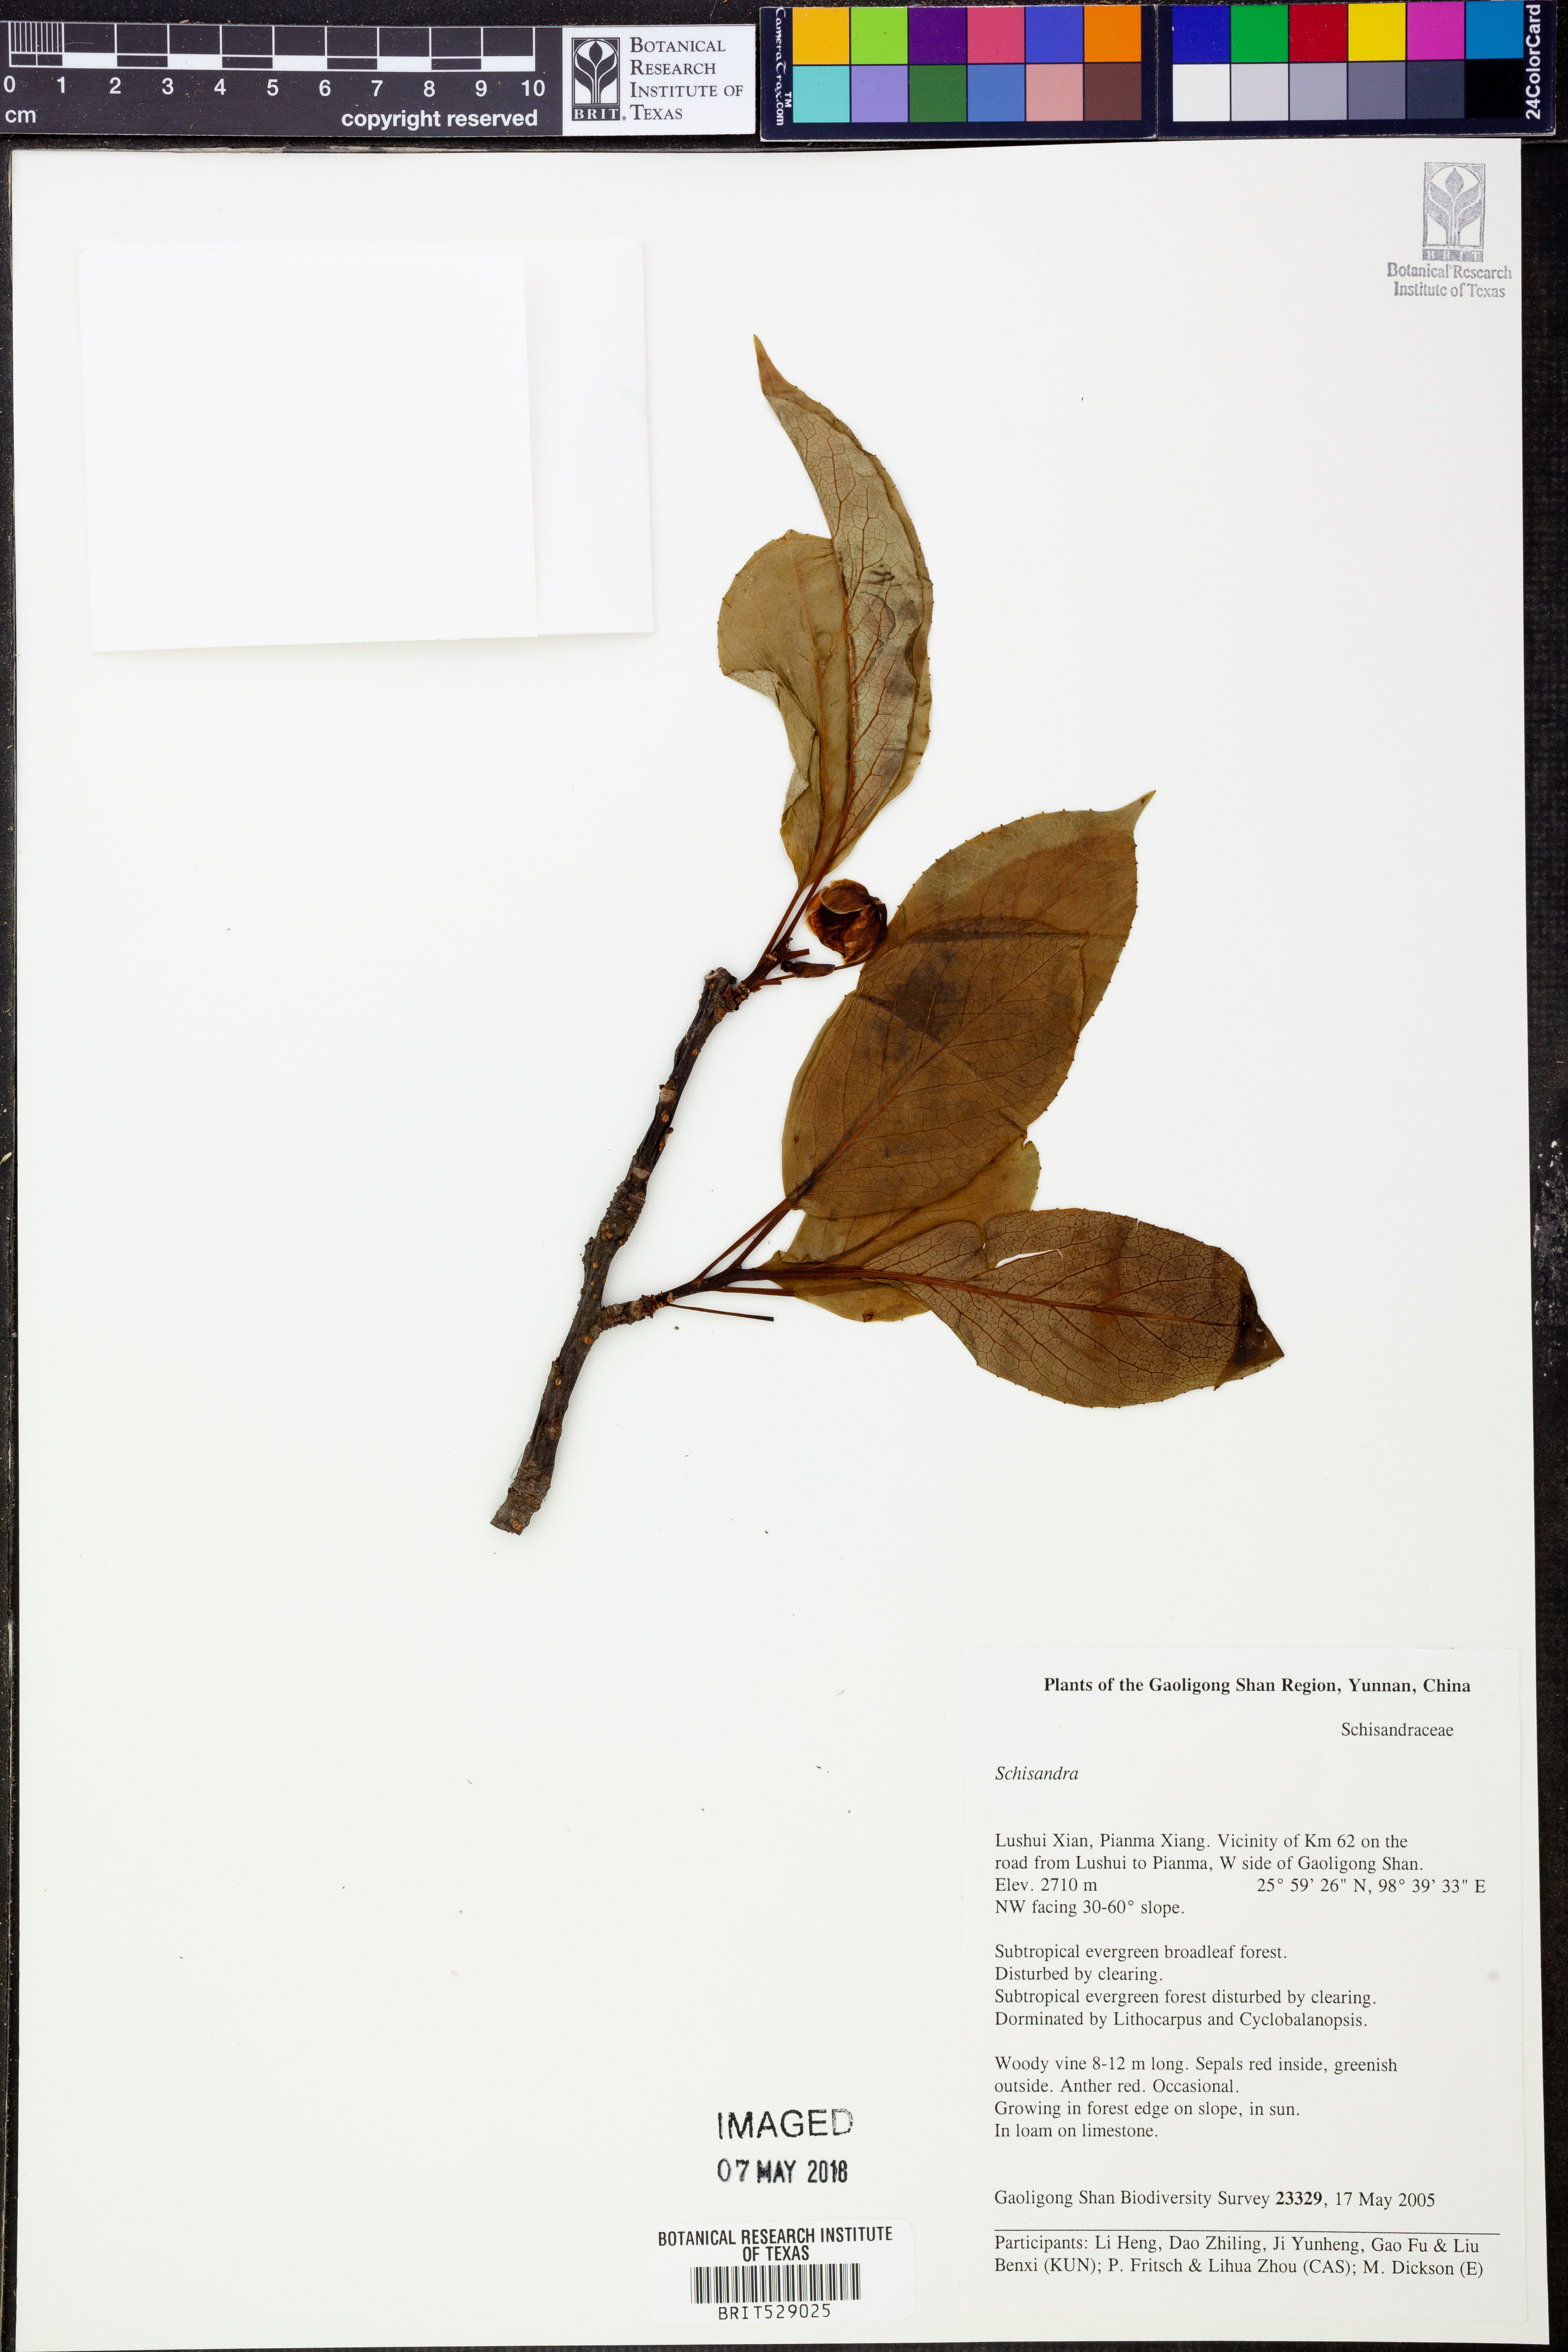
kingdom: Plantae
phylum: Tracheophyta
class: Magnoliopsida
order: Austrobaileyales
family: Schisandraceae
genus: Schisandra
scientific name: Schisandra
